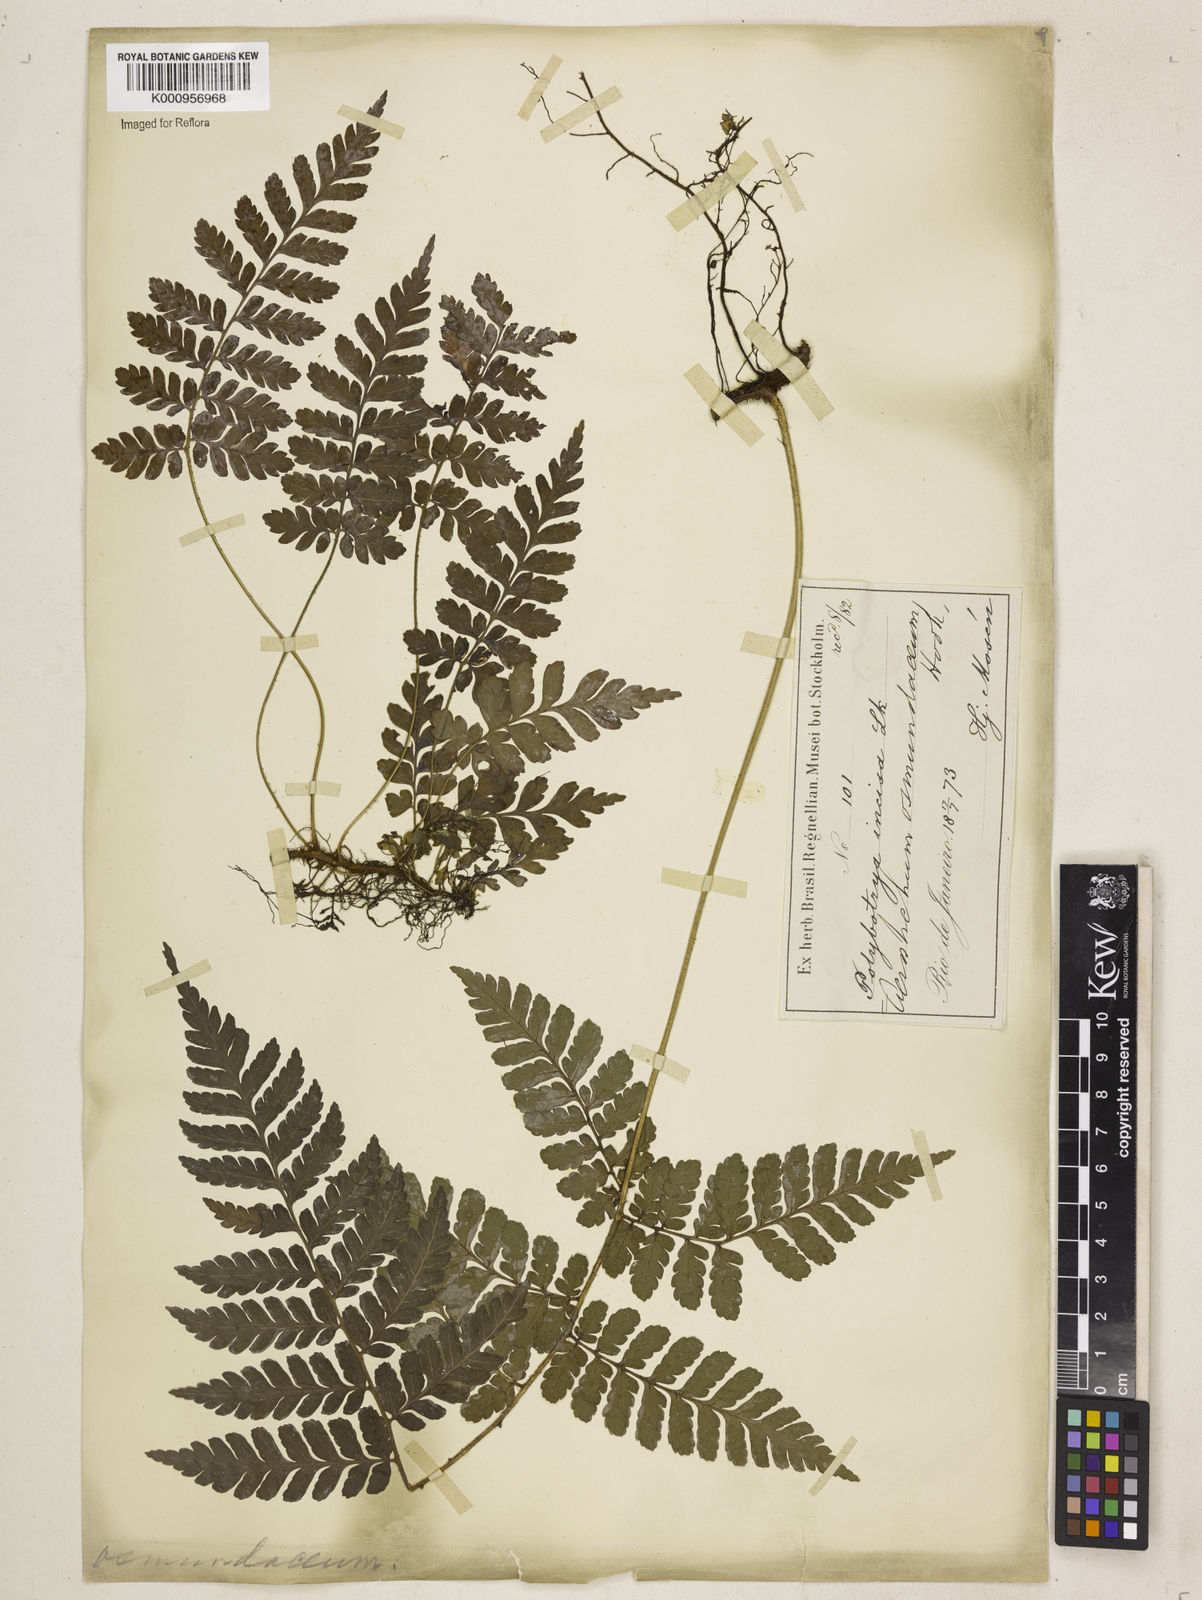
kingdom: Plantae
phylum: Tracheophyta
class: Polypodiopsida
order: Polypodiales
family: Dryopteridaceae
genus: Polybotrya
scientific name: Polybotrya osmundacea
